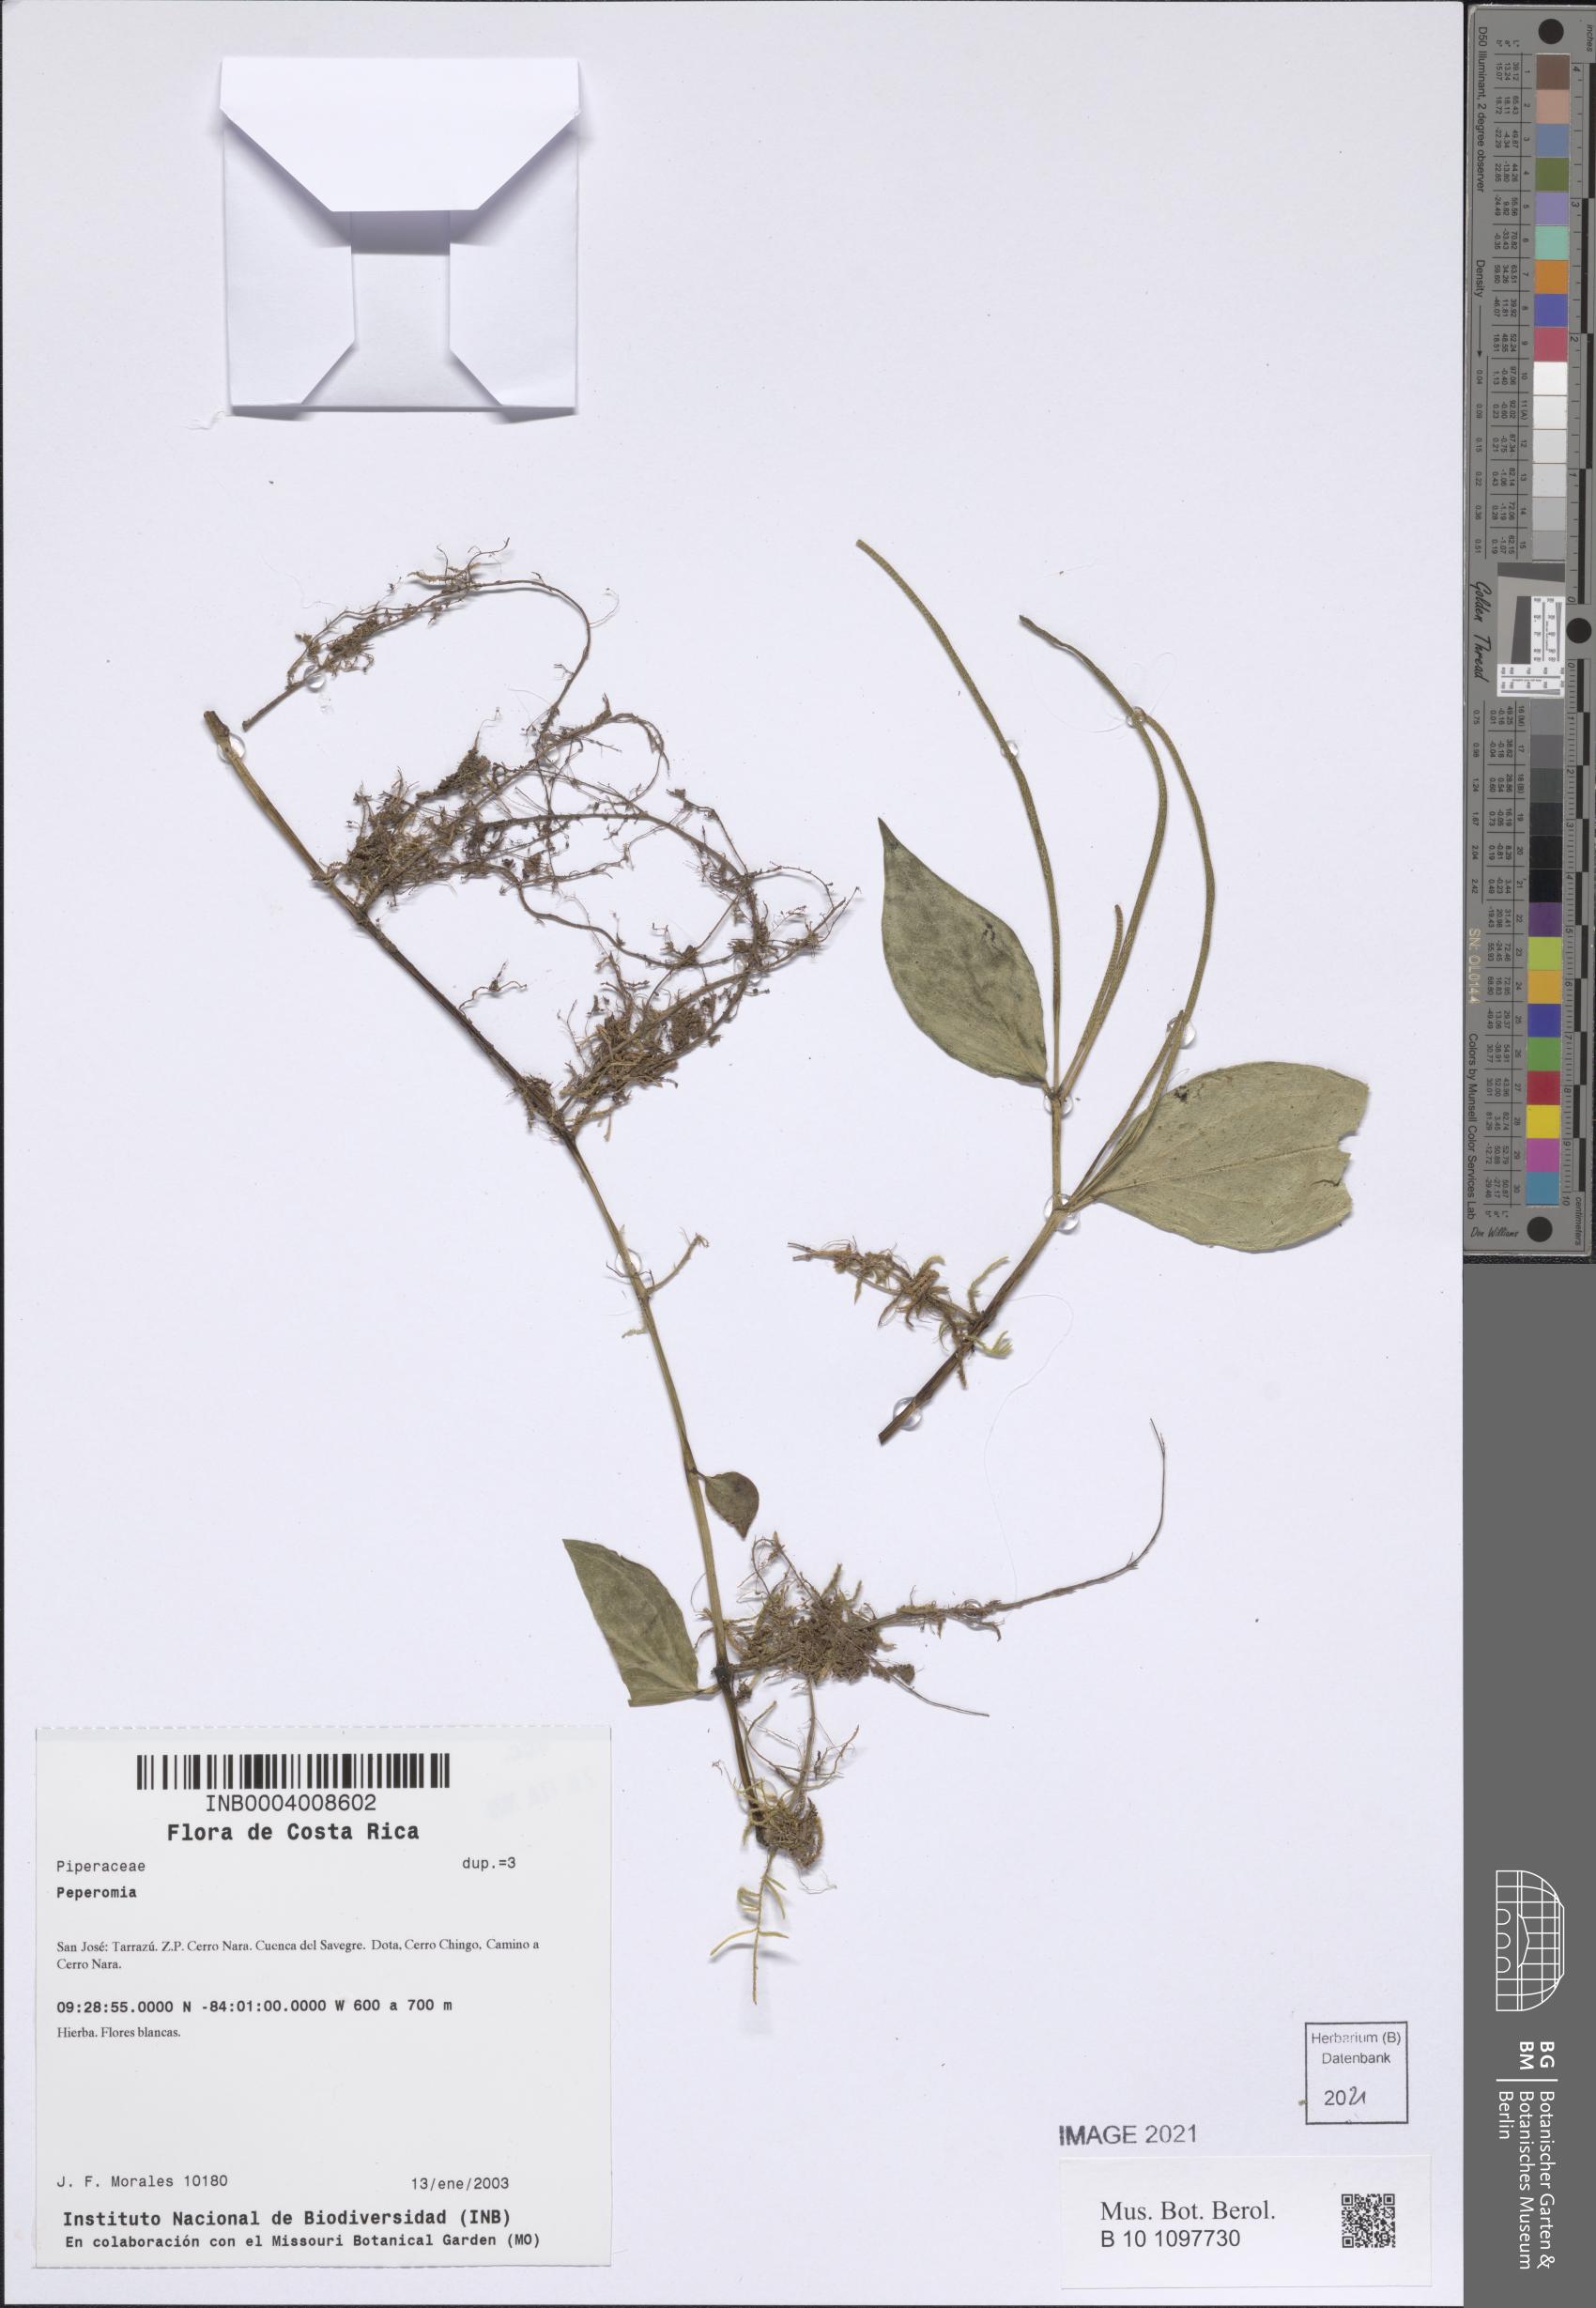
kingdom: Plantae
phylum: Tracheophyta
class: Magnoliopsida
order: Piperales
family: Piperaceae
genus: Peperomia
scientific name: Peperomia
